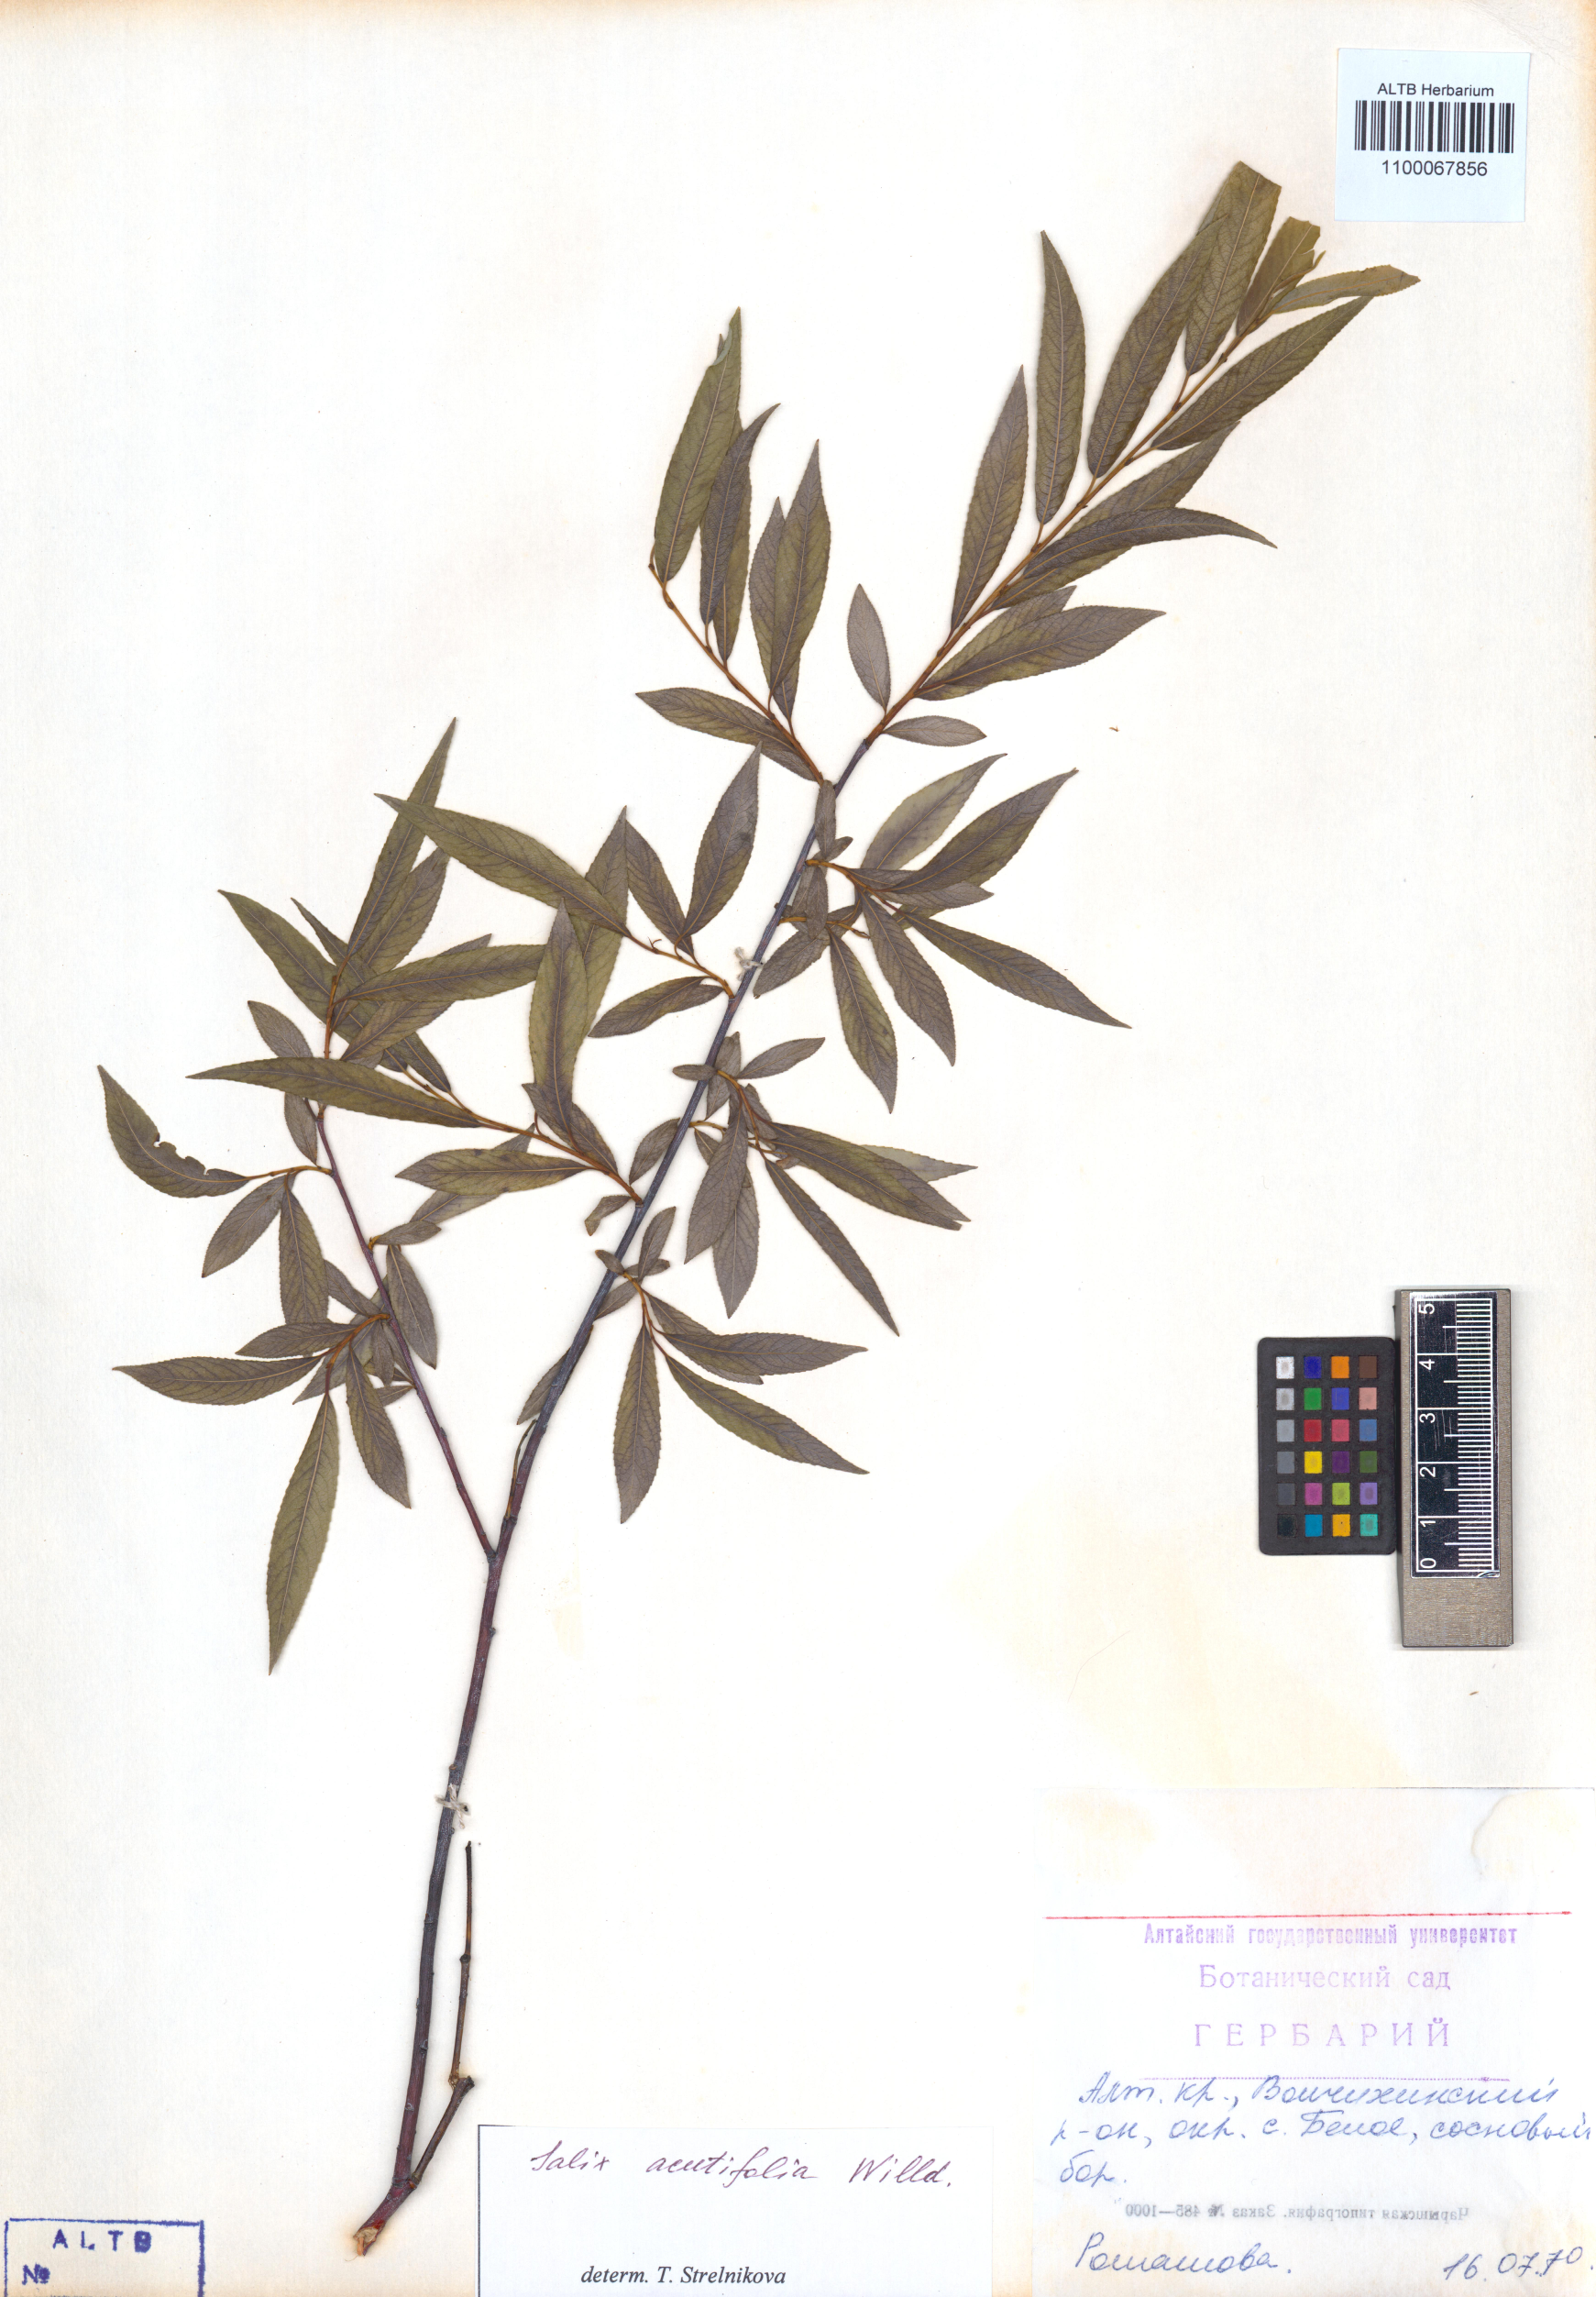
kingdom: Plantae
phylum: Tracheophyta
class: Magnoliopsida
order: Malpighiales
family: Salicaceae
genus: Salix
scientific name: Salix acutifolia
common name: Siberian violet-willow
